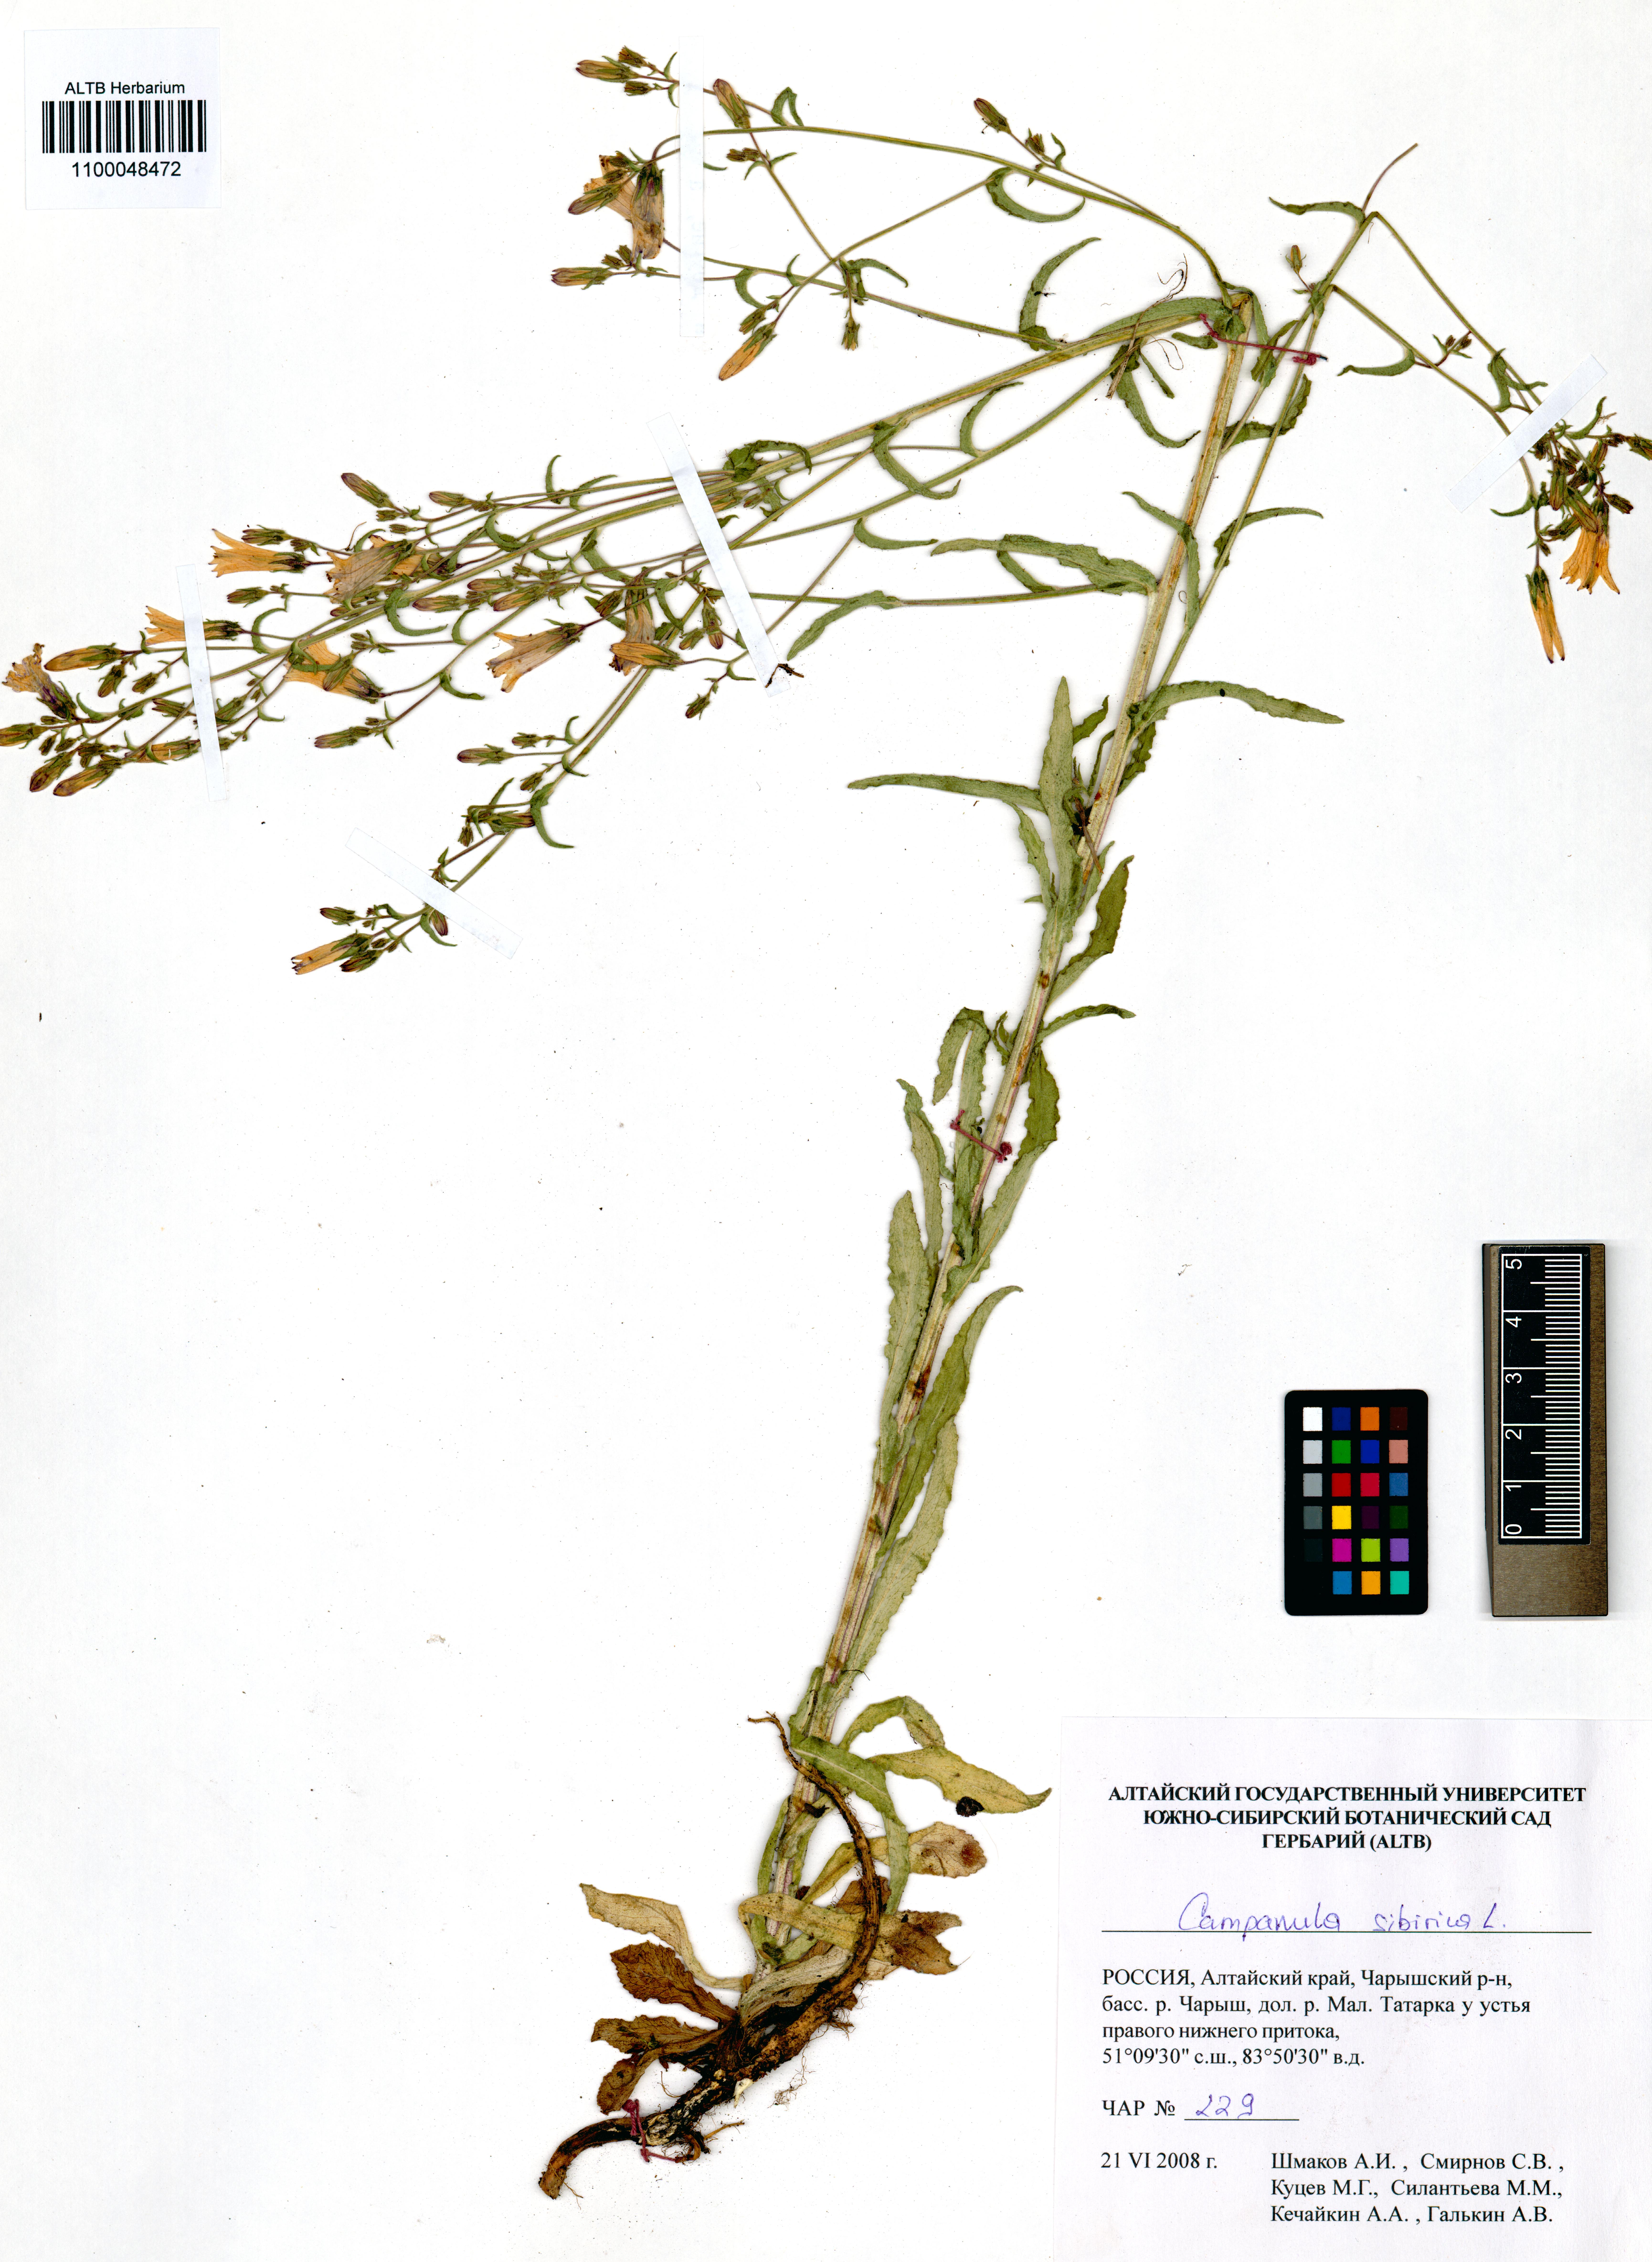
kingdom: Plantae
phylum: Tracheophyta
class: Magnoliopsida
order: Asterales
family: Campanulaceae
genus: Campanula
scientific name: Campanula sibirica
